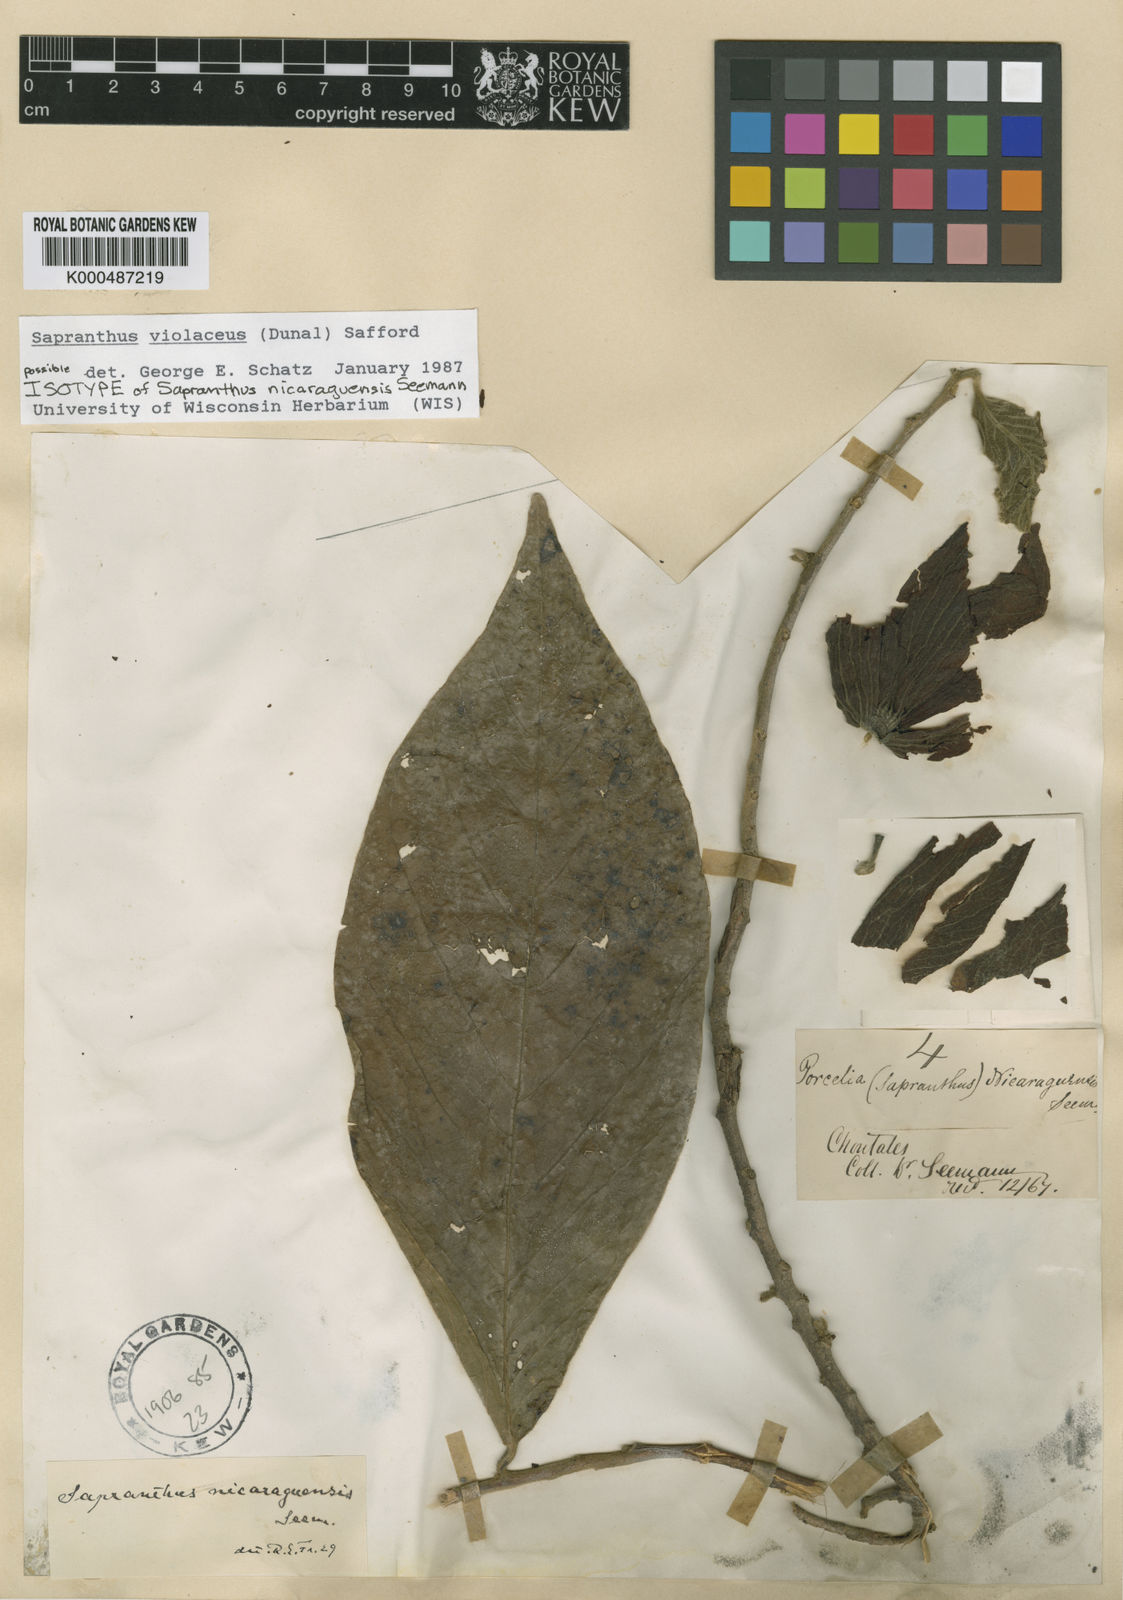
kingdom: Plantae
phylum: Tracheophyta
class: Magnoliopsida
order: Magnoliales
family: Annonaceae
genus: Sapranthus
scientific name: Sapranthus
